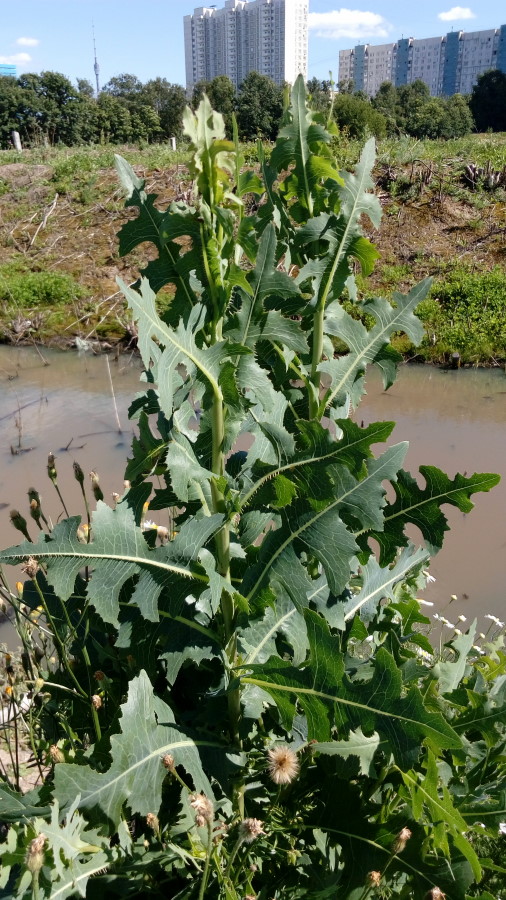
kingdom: Plantae
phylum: Tracheophyta
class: Magnoliopsida
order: Asterales
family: Asteraceae
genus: Lactuca
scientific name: Lactuca serriola
